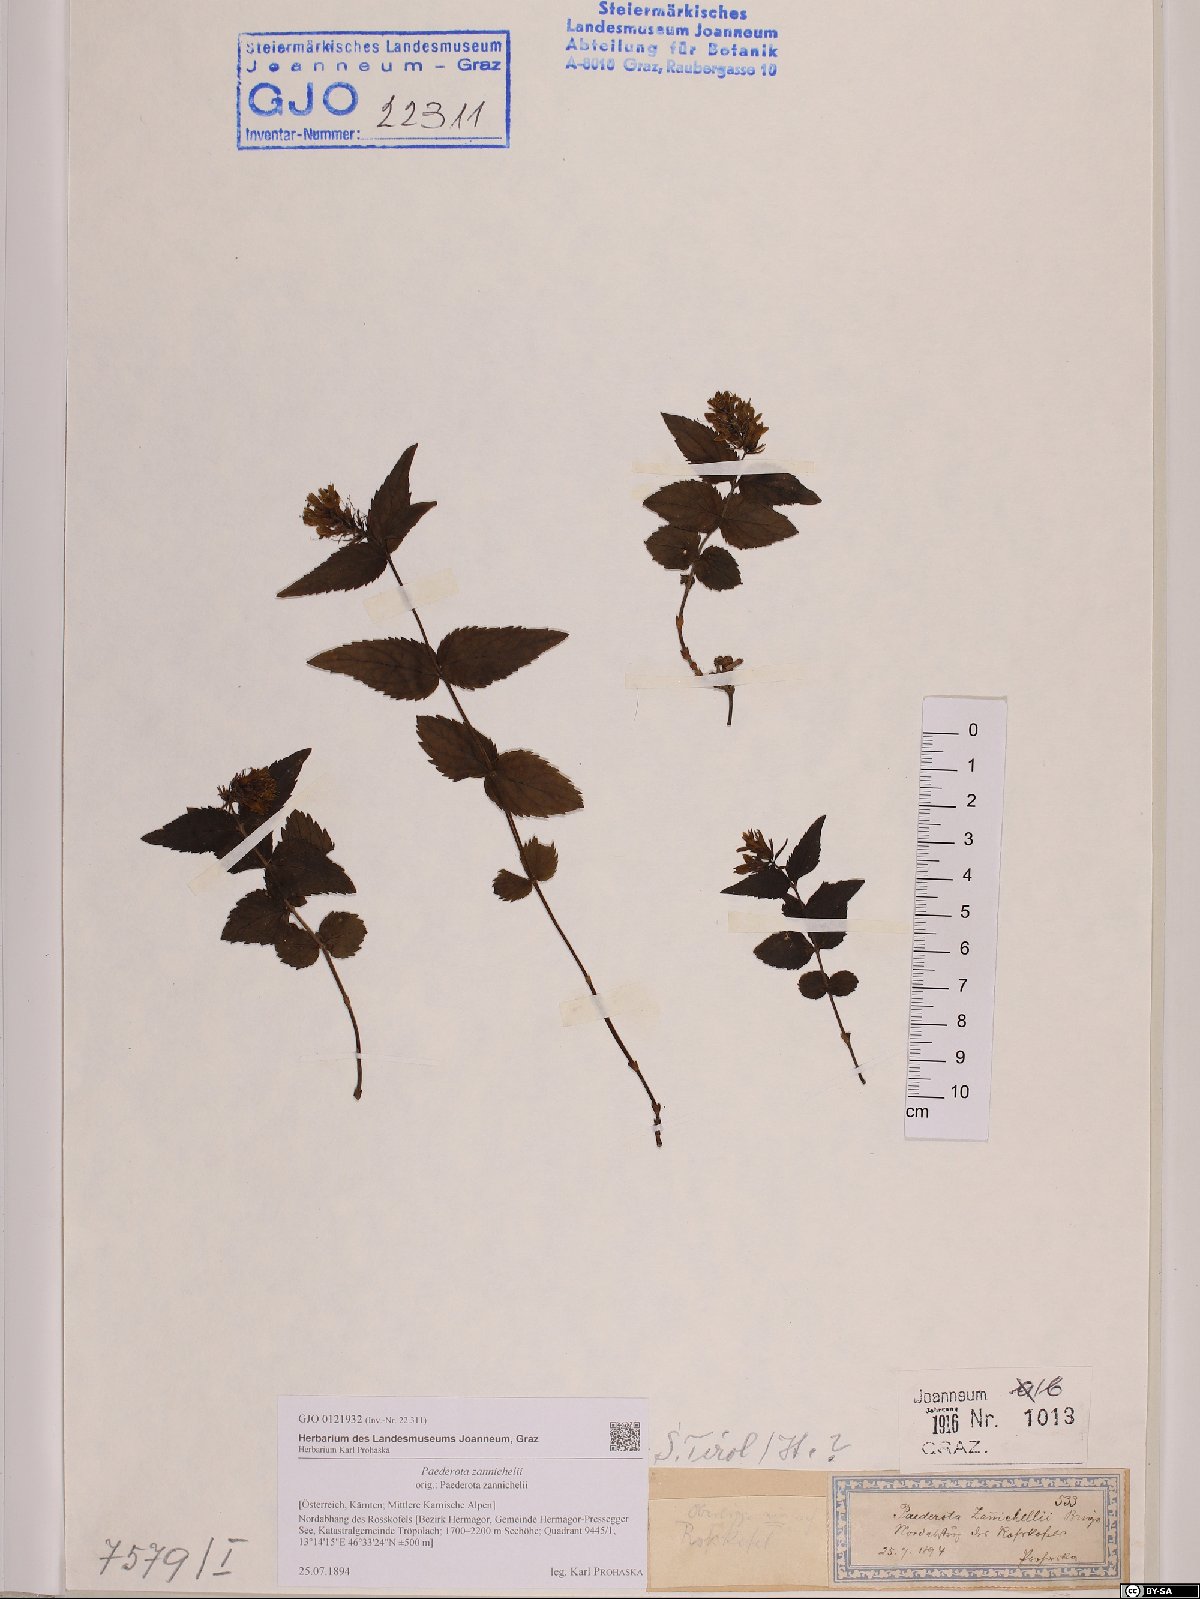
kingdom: Plantae
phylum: Tracheophyta
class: Magnoliopsida
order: Lamiales
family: Plantaginaceae
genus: Paederota
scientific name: Paederota lutea
